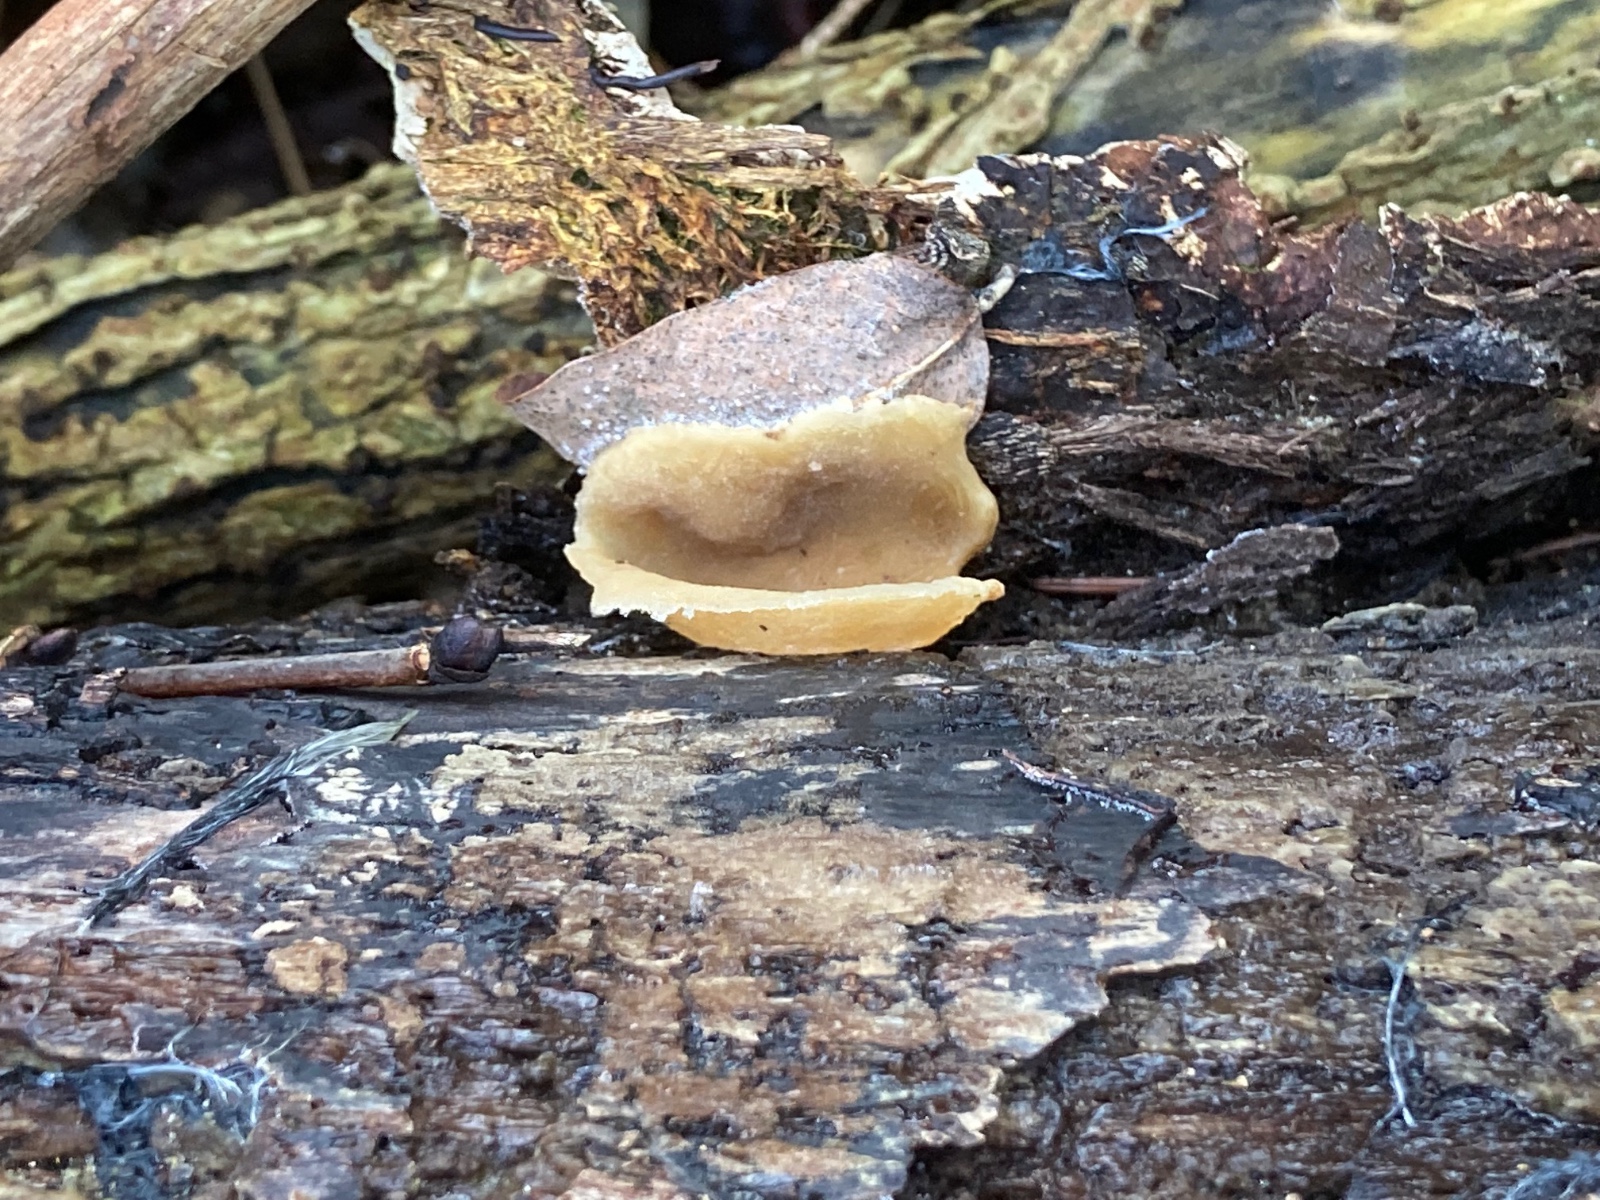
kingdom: Fungi
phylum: Ascomycota
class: Pezizomycetes
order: Pezizales
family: Pezizaceae
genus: Peziza
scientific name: Peziza varia
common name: Ved-bægersvamp
